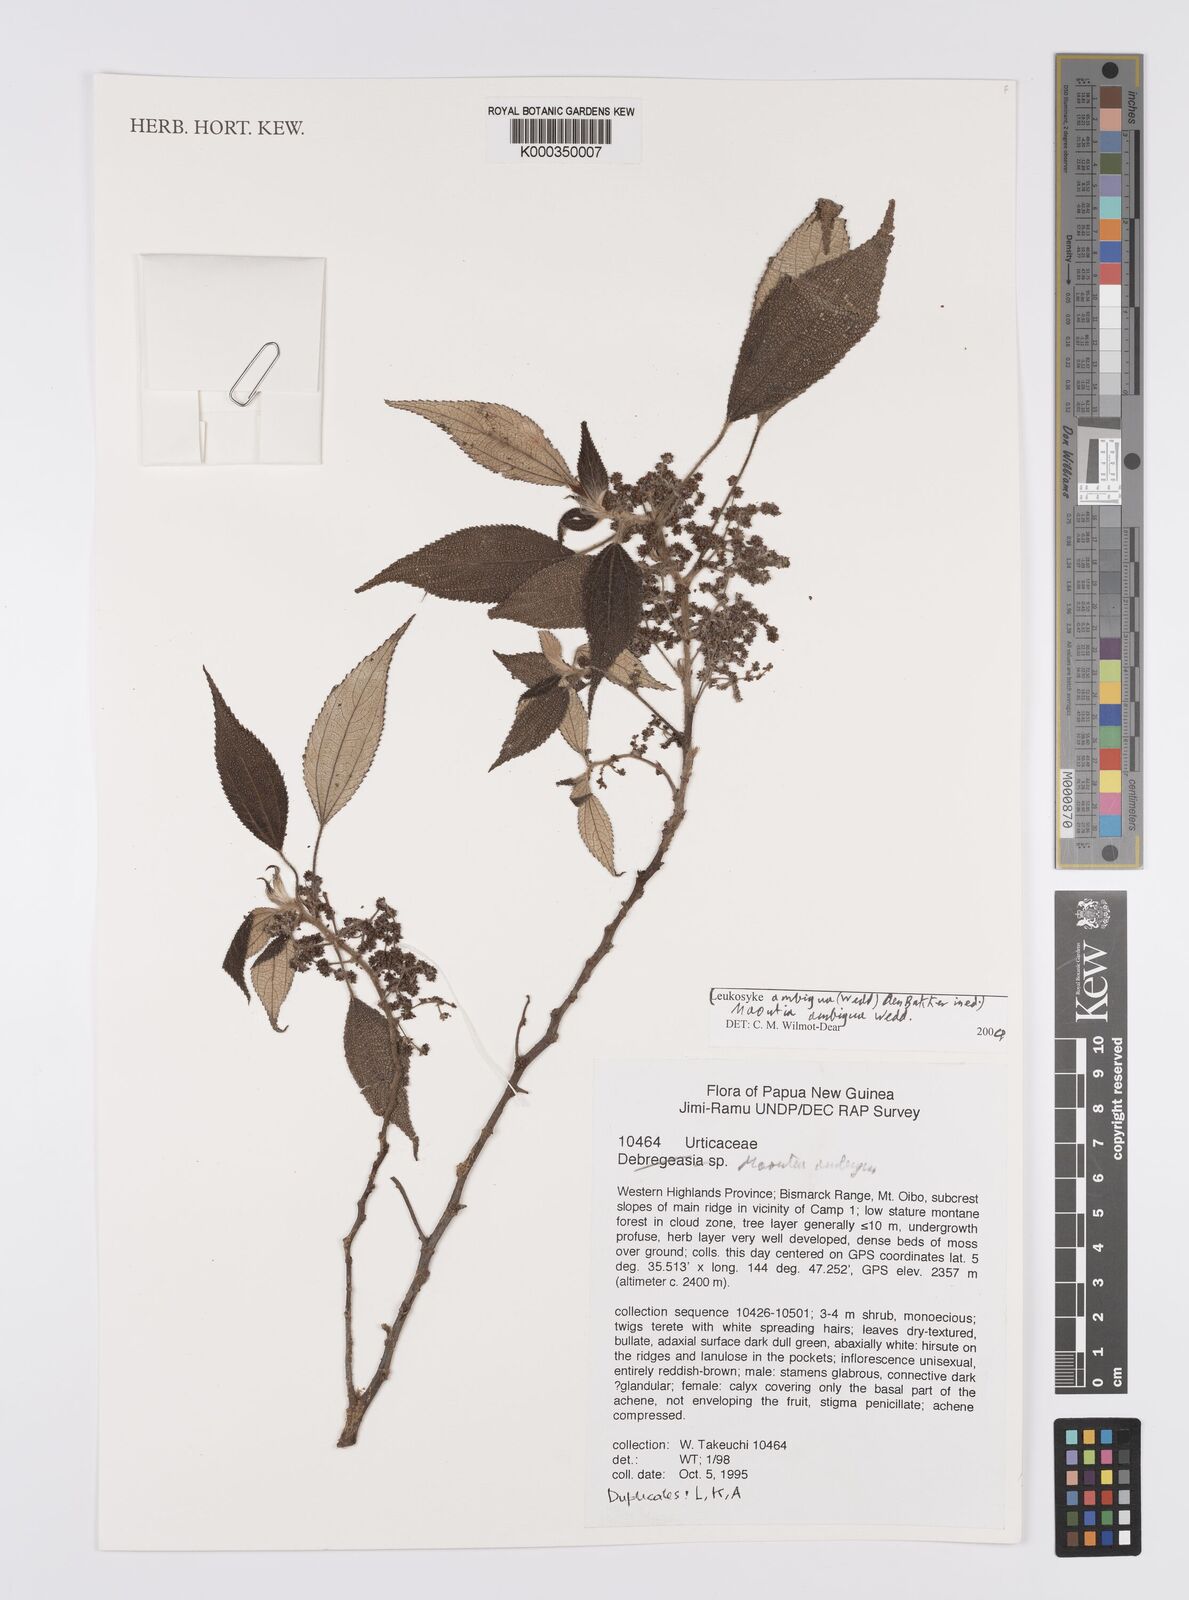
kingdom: Plantae
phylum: Tracheophyta
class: Magnoliopsida
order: Rosales
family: Urticaceae
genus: Maoutia
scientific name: Maoutia ambigua
